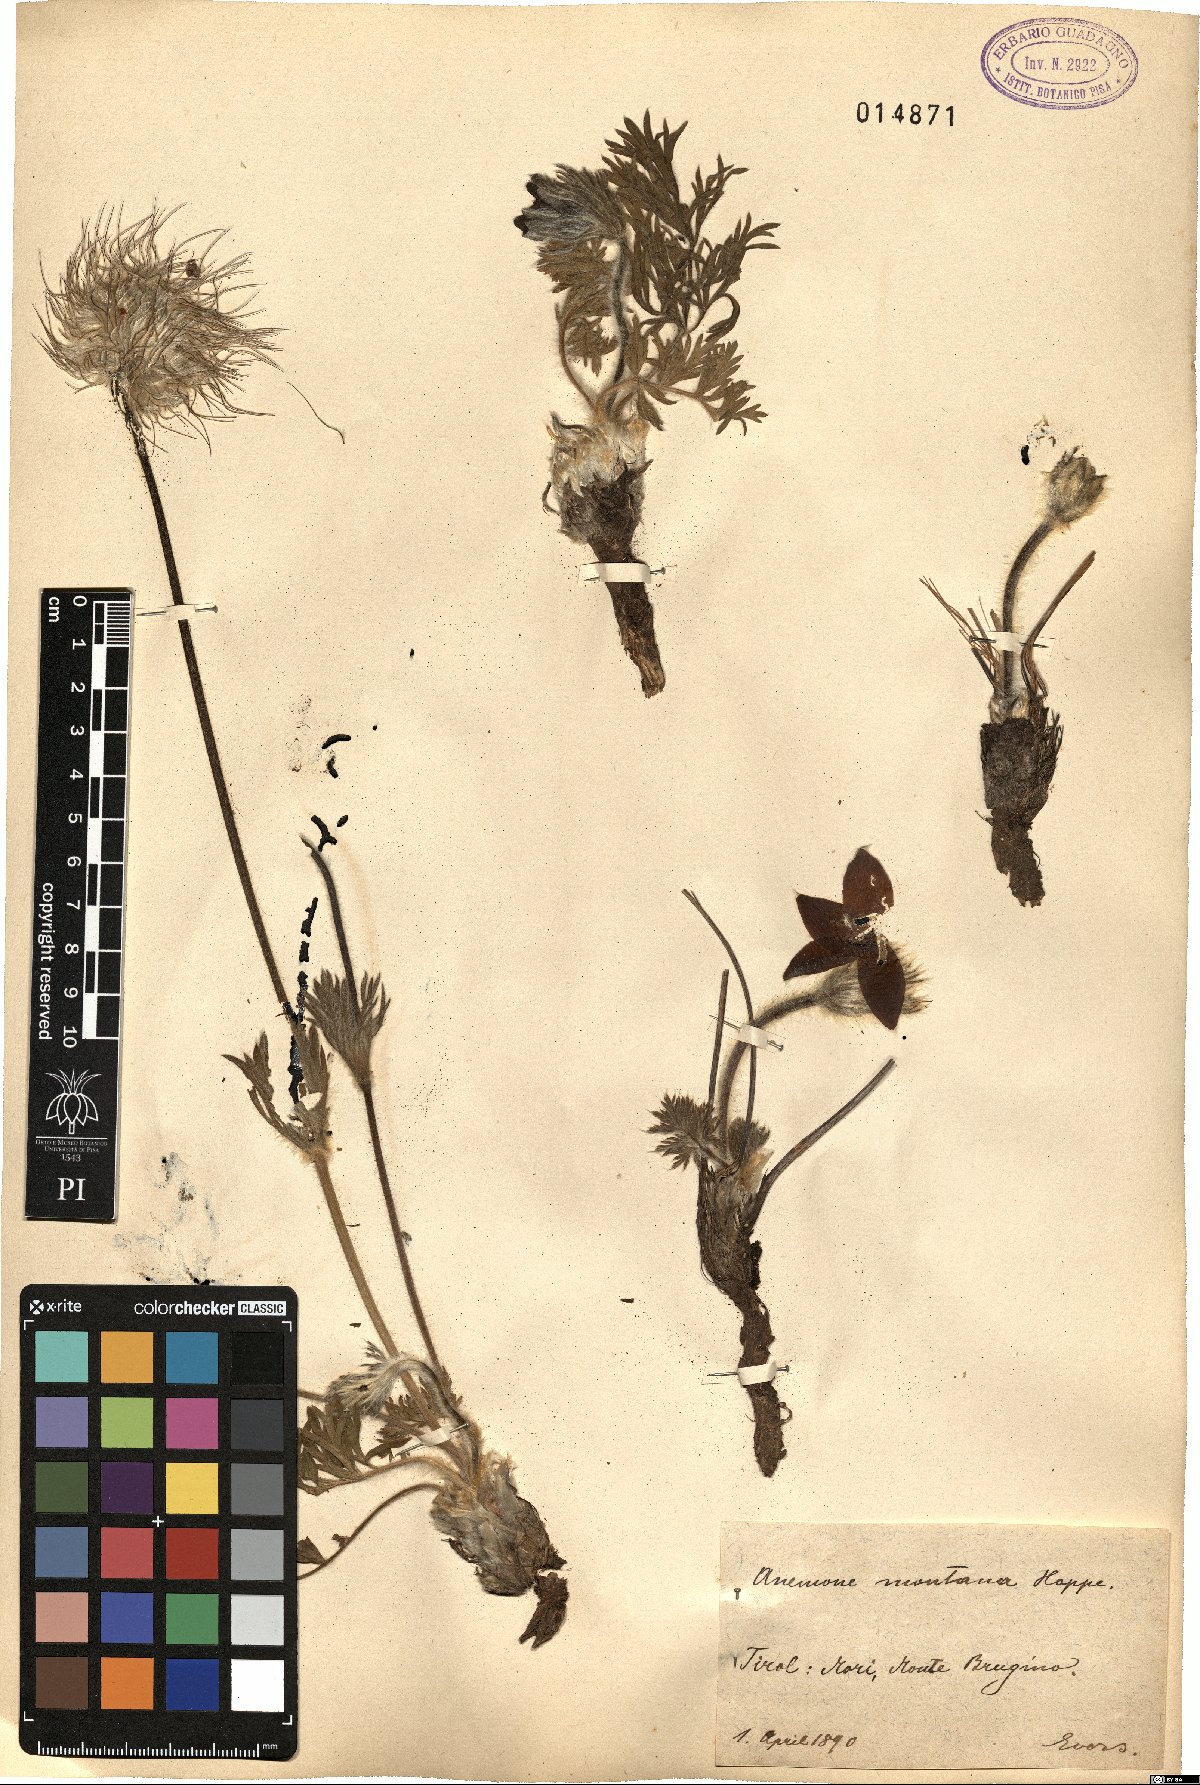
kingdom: Plantae
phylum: Tracheophyta
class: Magnoliopsida
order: Ranunculales
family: Ranunculaceae
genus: Pulsatilla
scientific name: Pulsatilla montana
